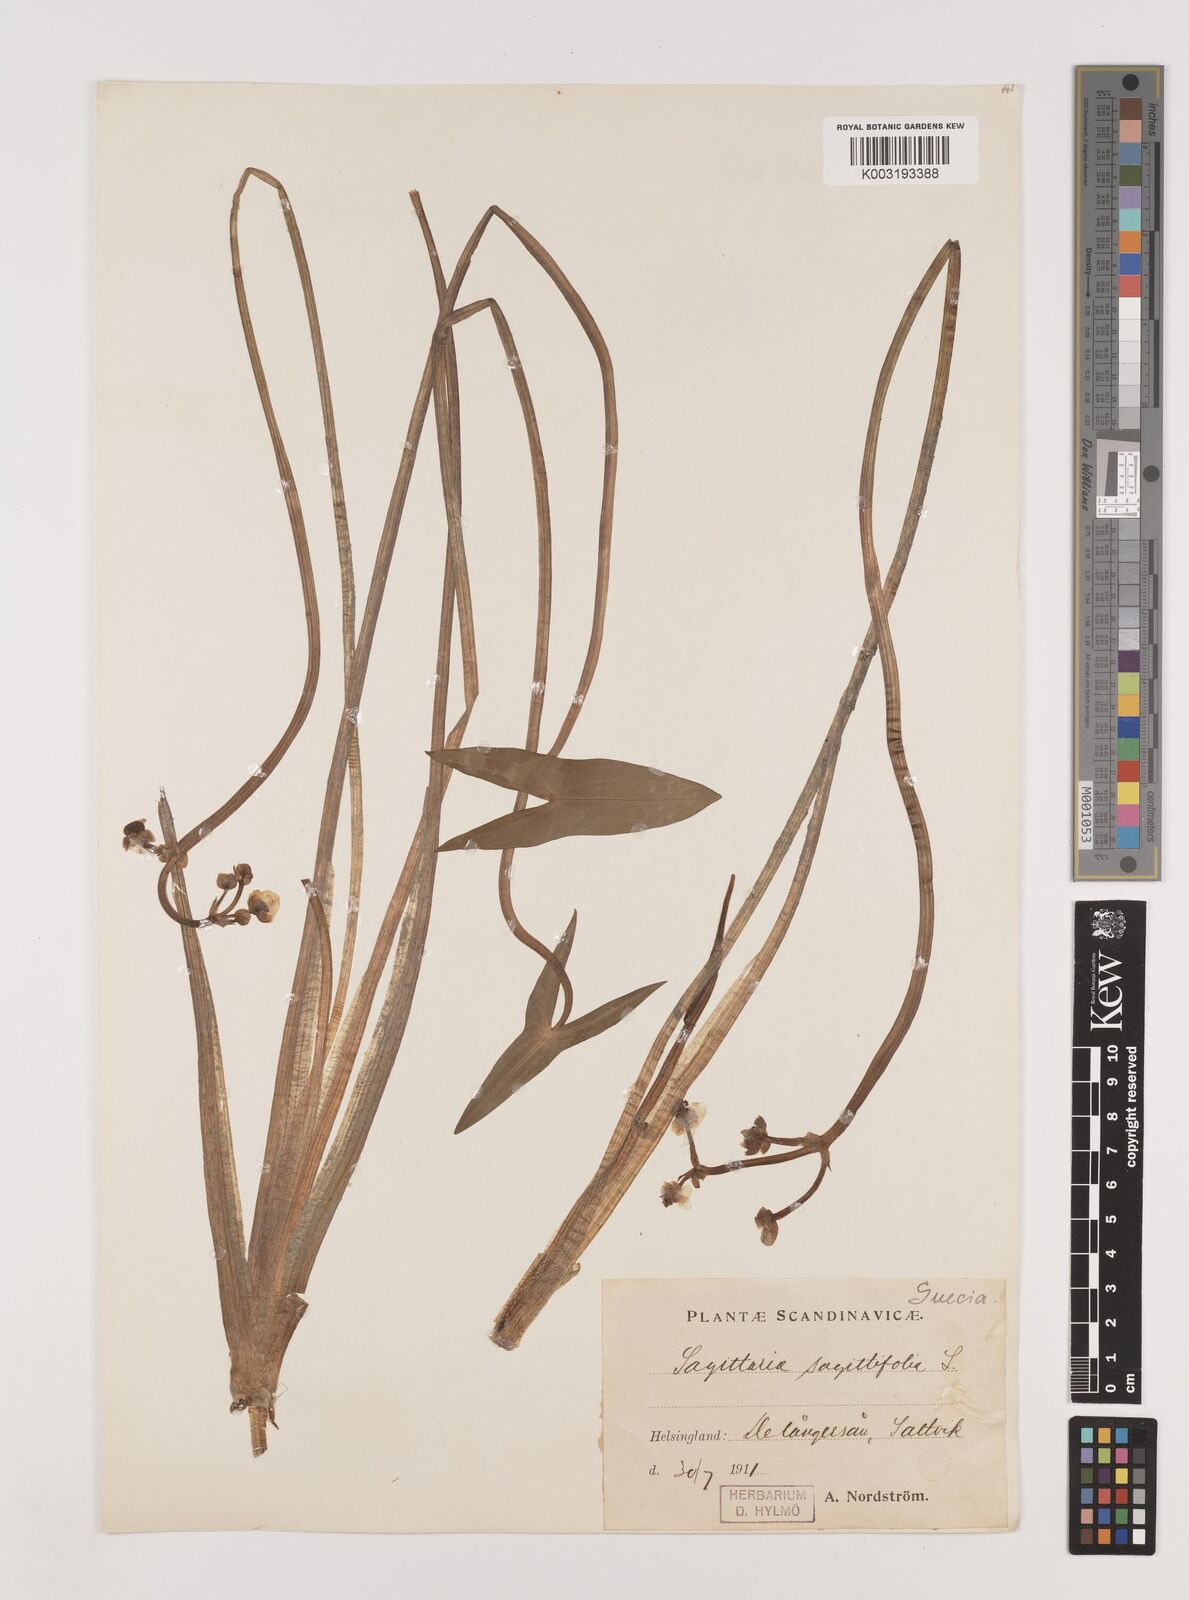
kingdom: Plantae
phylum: Tracheophyta
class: Liliopsida
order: Alismatales
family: Alismataceae
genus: Sagittaria
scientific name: Sagittaria sagittifolia
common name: Arrowhead
